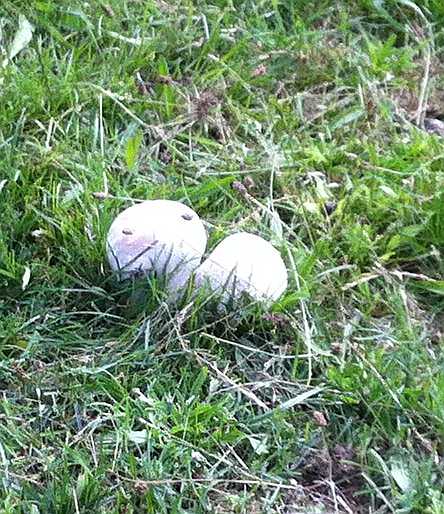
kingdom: Fungi
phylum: Basidiomycota
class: Agaricomycetes
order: Agaricales
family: Lycoperdaceae
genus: Bovistella
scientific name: Bovistella utriformis
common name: skællet støvbold
